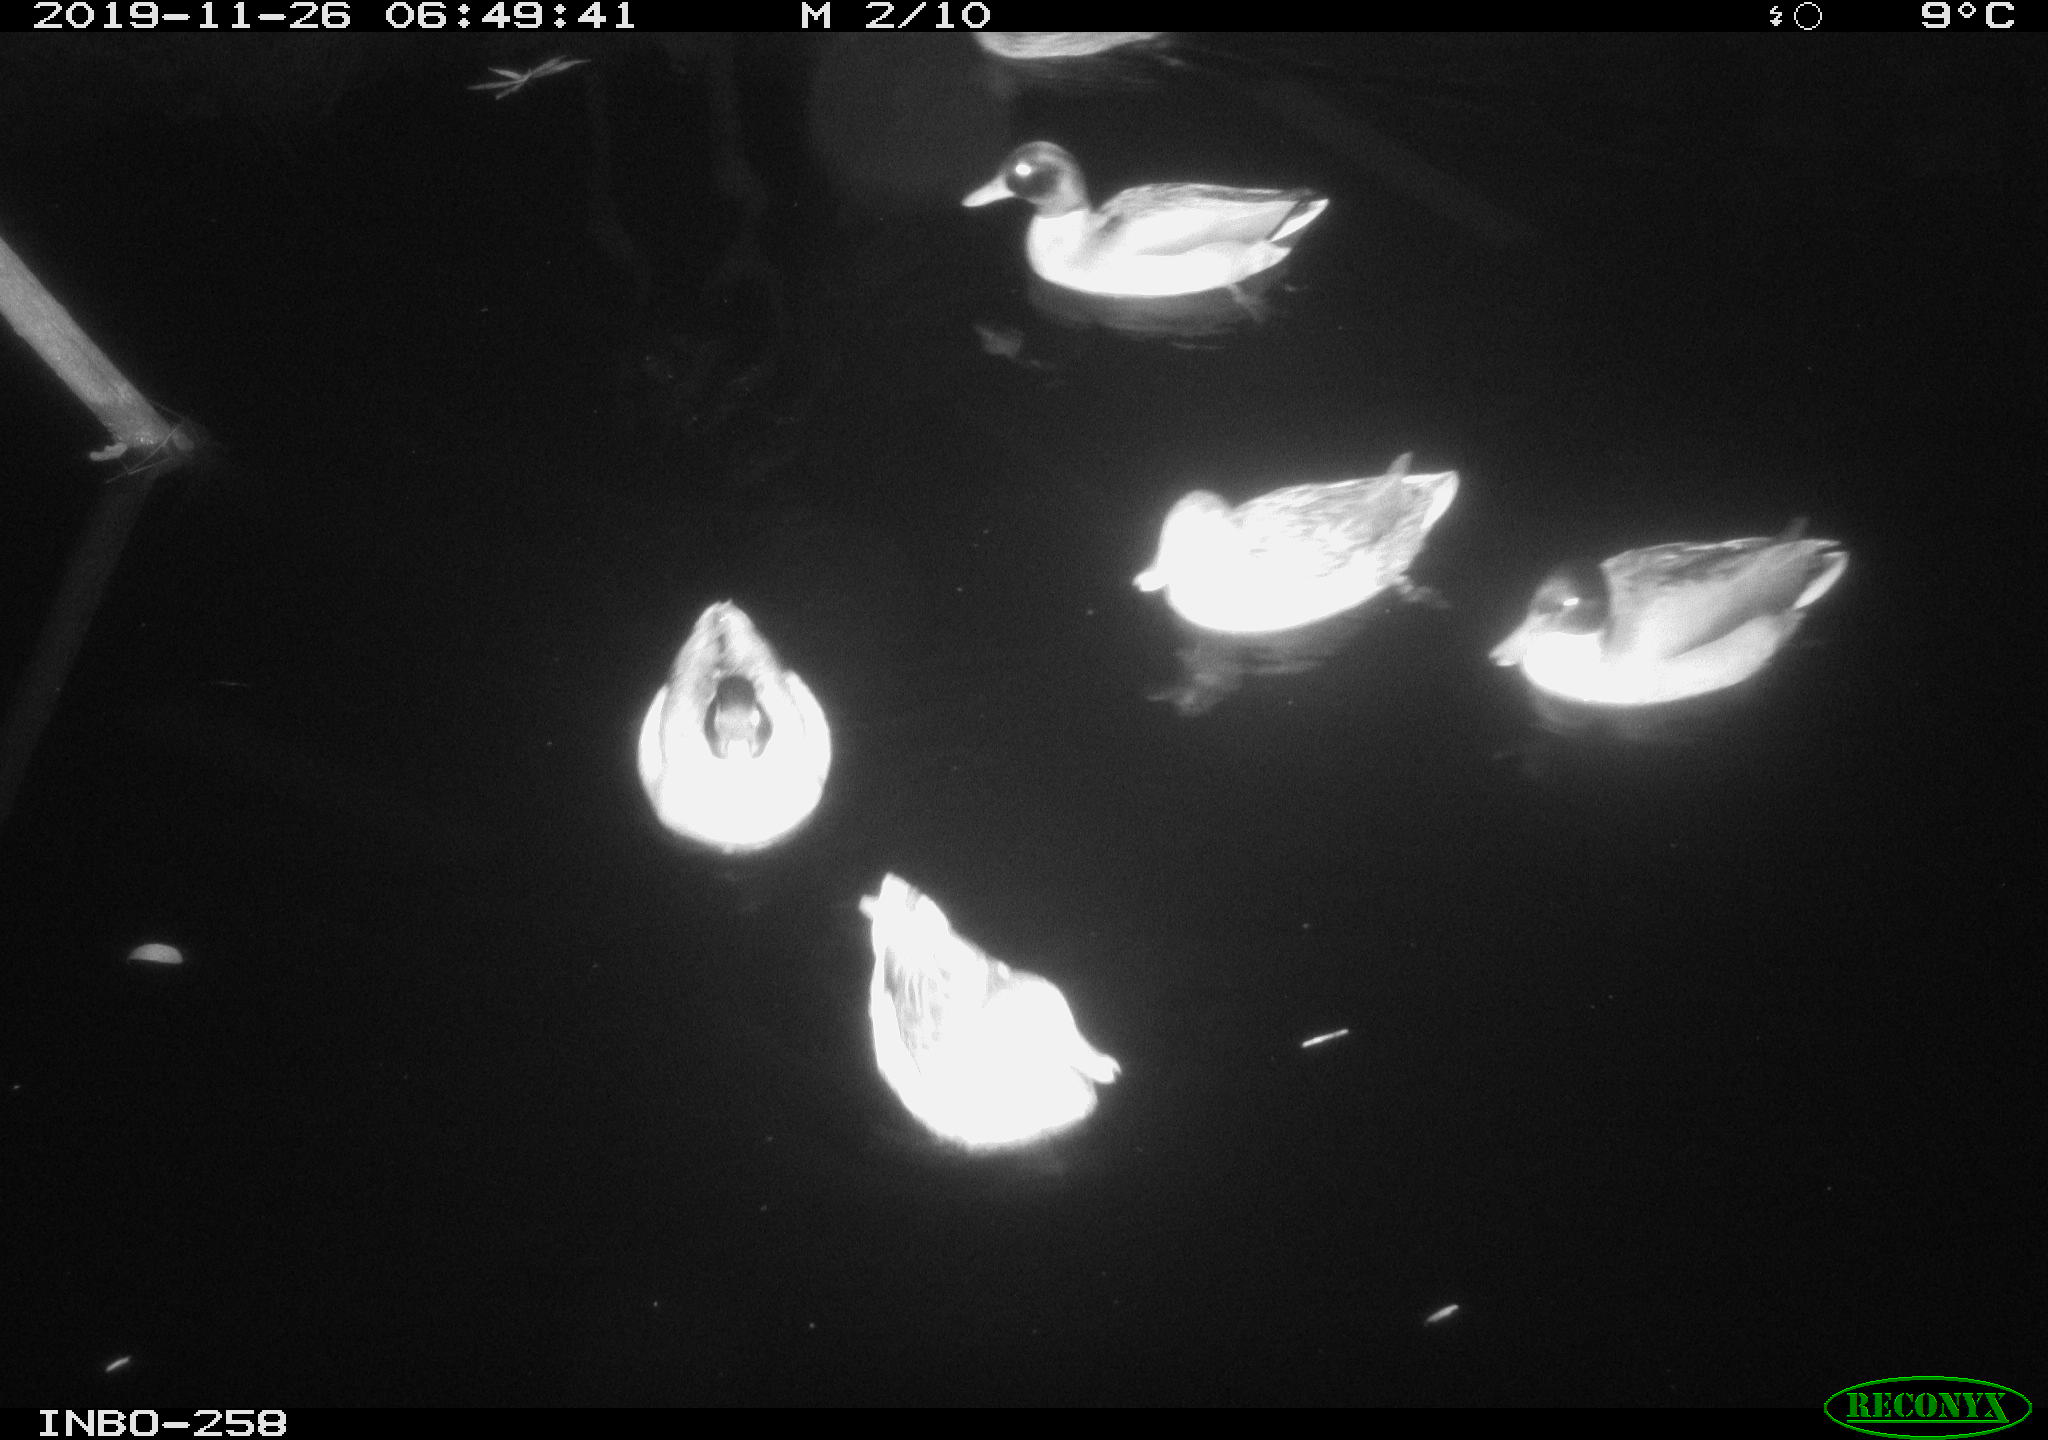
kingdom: Animalia
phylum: Chordata
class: Aves
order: Anseriformes
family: Anatidae
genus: Anas
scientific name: Anas platyrhynchos
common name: Mallard
